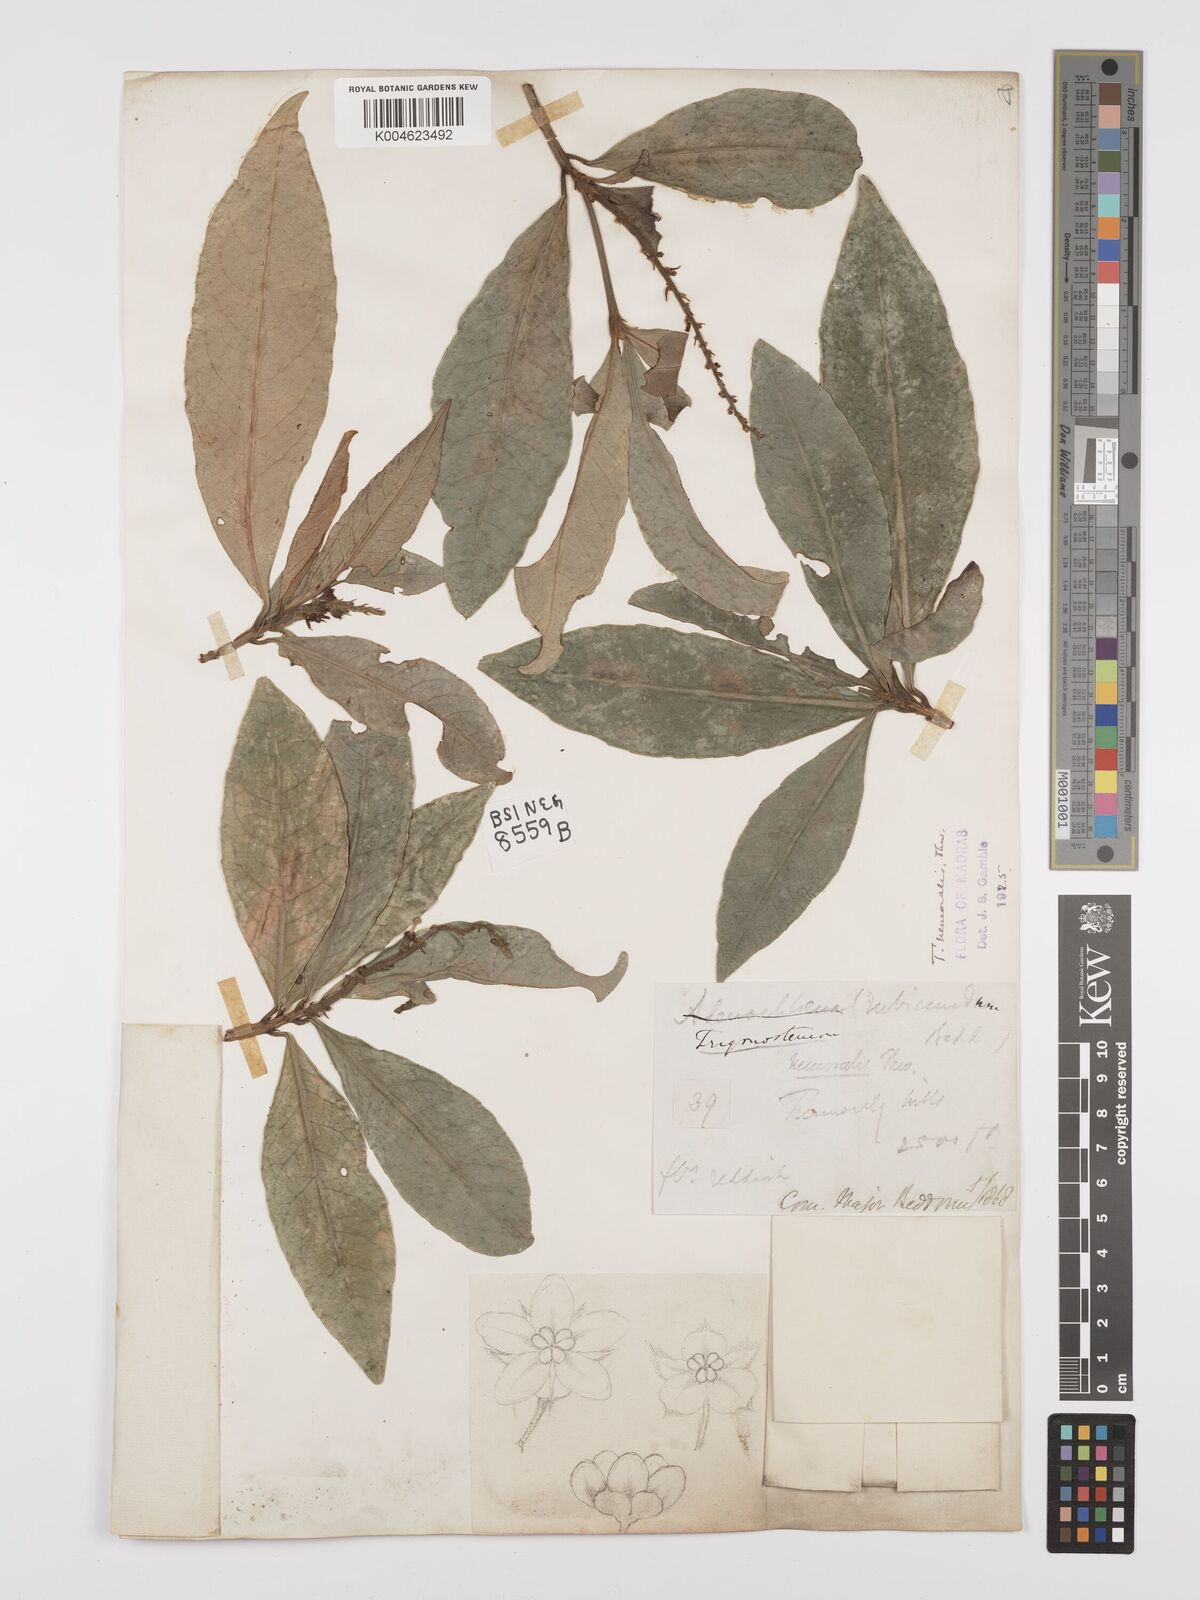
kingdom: Plantae
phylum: Tracheophyta
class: Magnoliopsida
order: Malpighiales
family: Euphorbiaceae
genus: Trigonostemon
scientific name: Trigonostemon nemoralis
